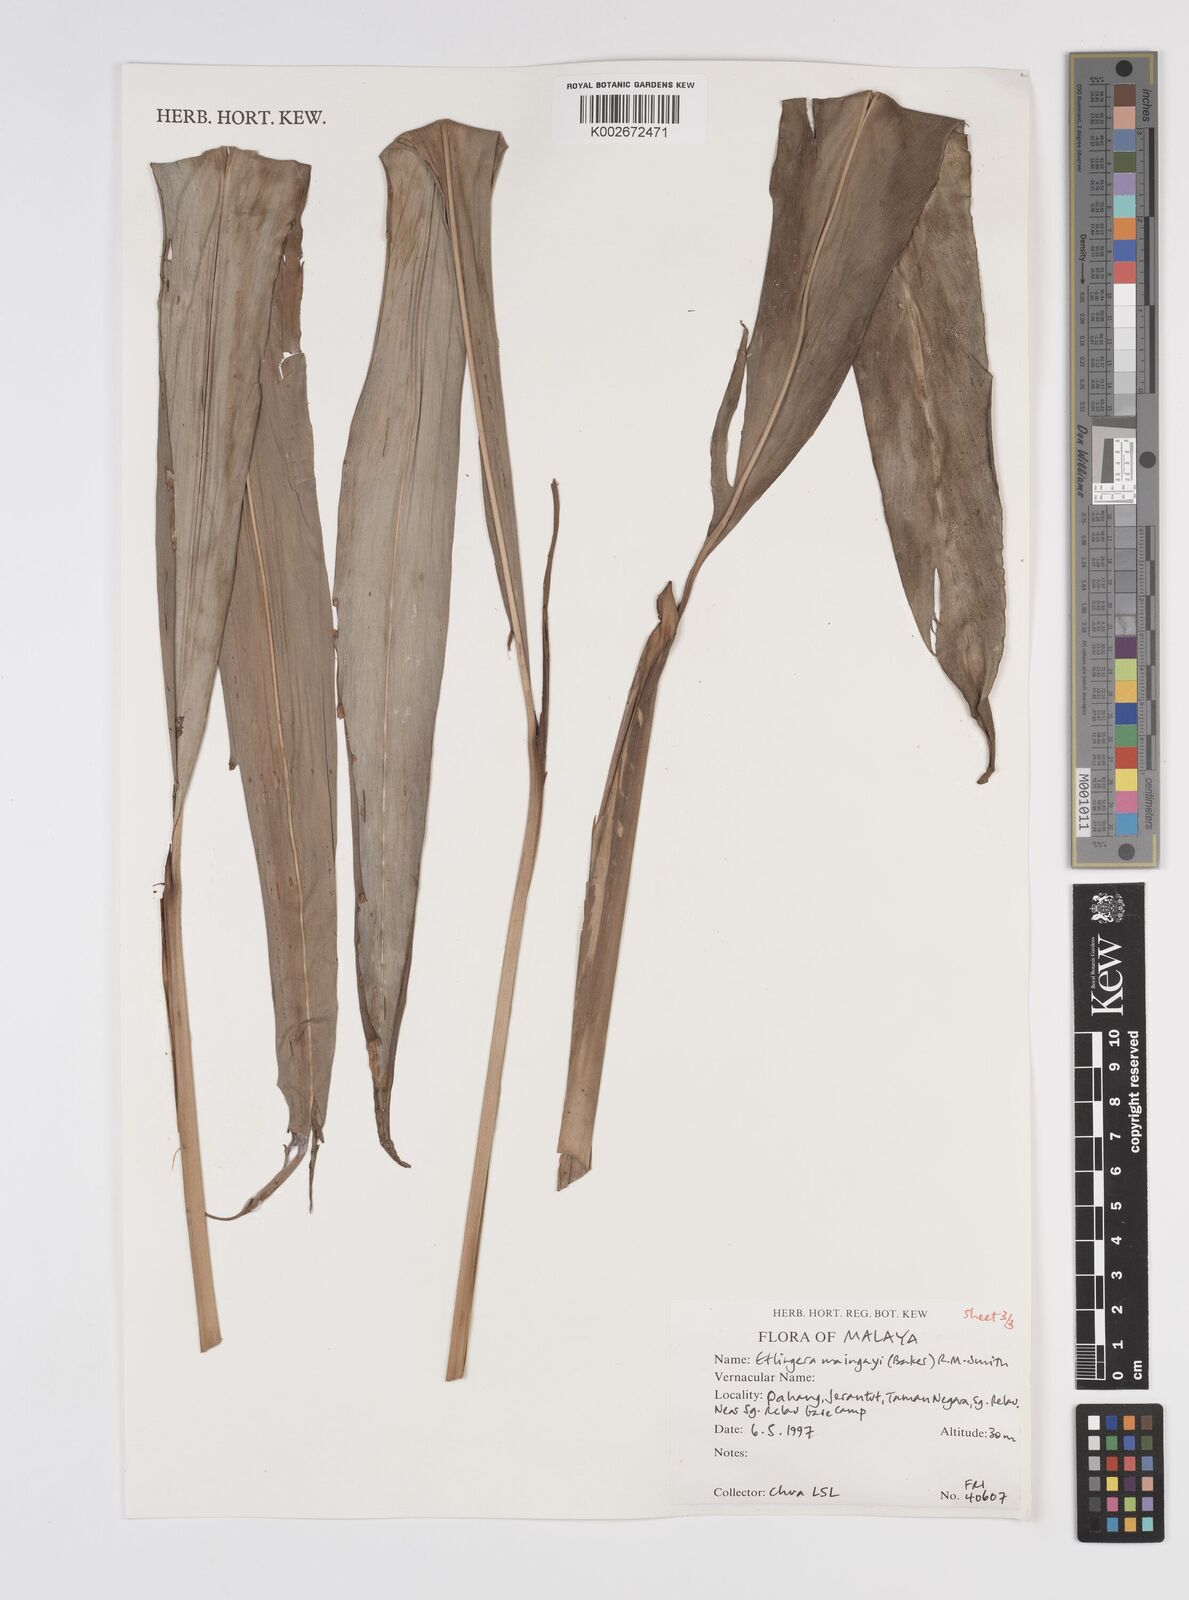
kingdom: Plantae
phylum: Tracheophyta
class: Liliopsida
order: Zingiberales
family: Zingiberaceae
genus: Etlingera
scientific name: Etlingera maingayi
